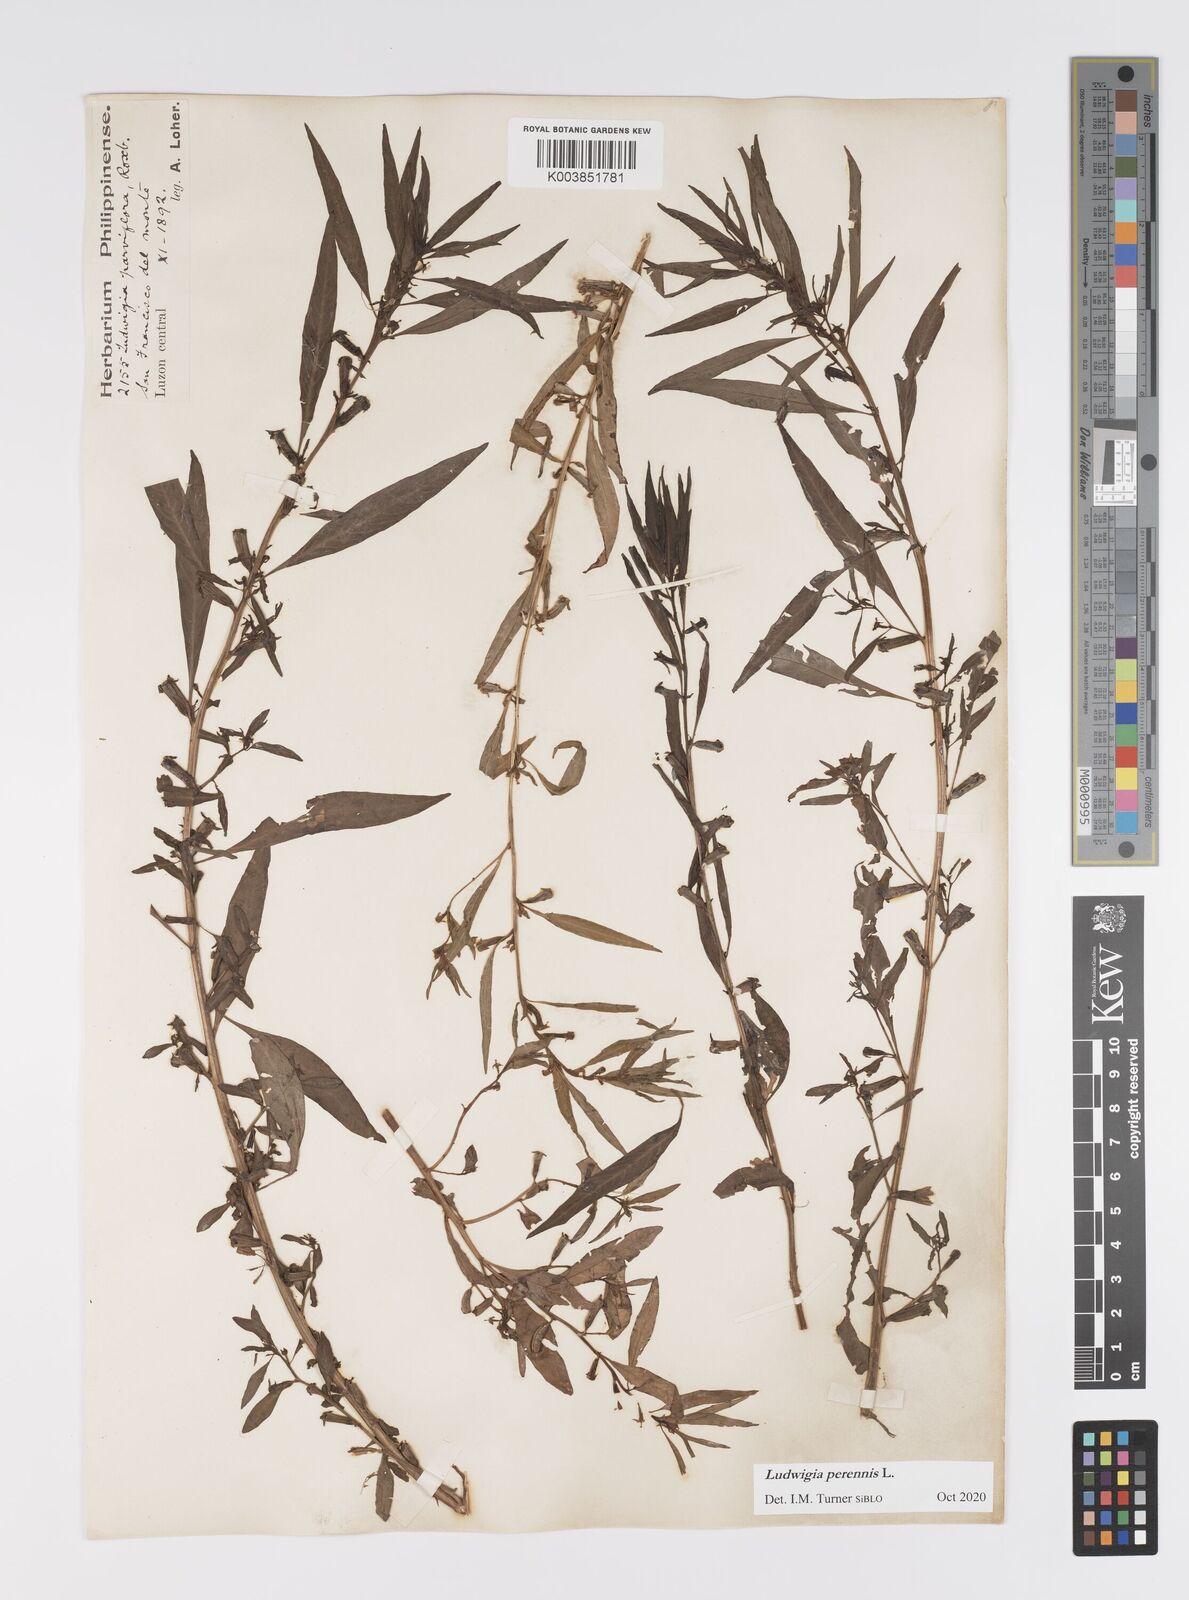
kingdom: Plantae
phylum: Tracheophyta
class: Magnoliopsida
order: Myrtales
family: Onagraceae
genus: Ludwigia
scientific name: Ludwigia perennis
